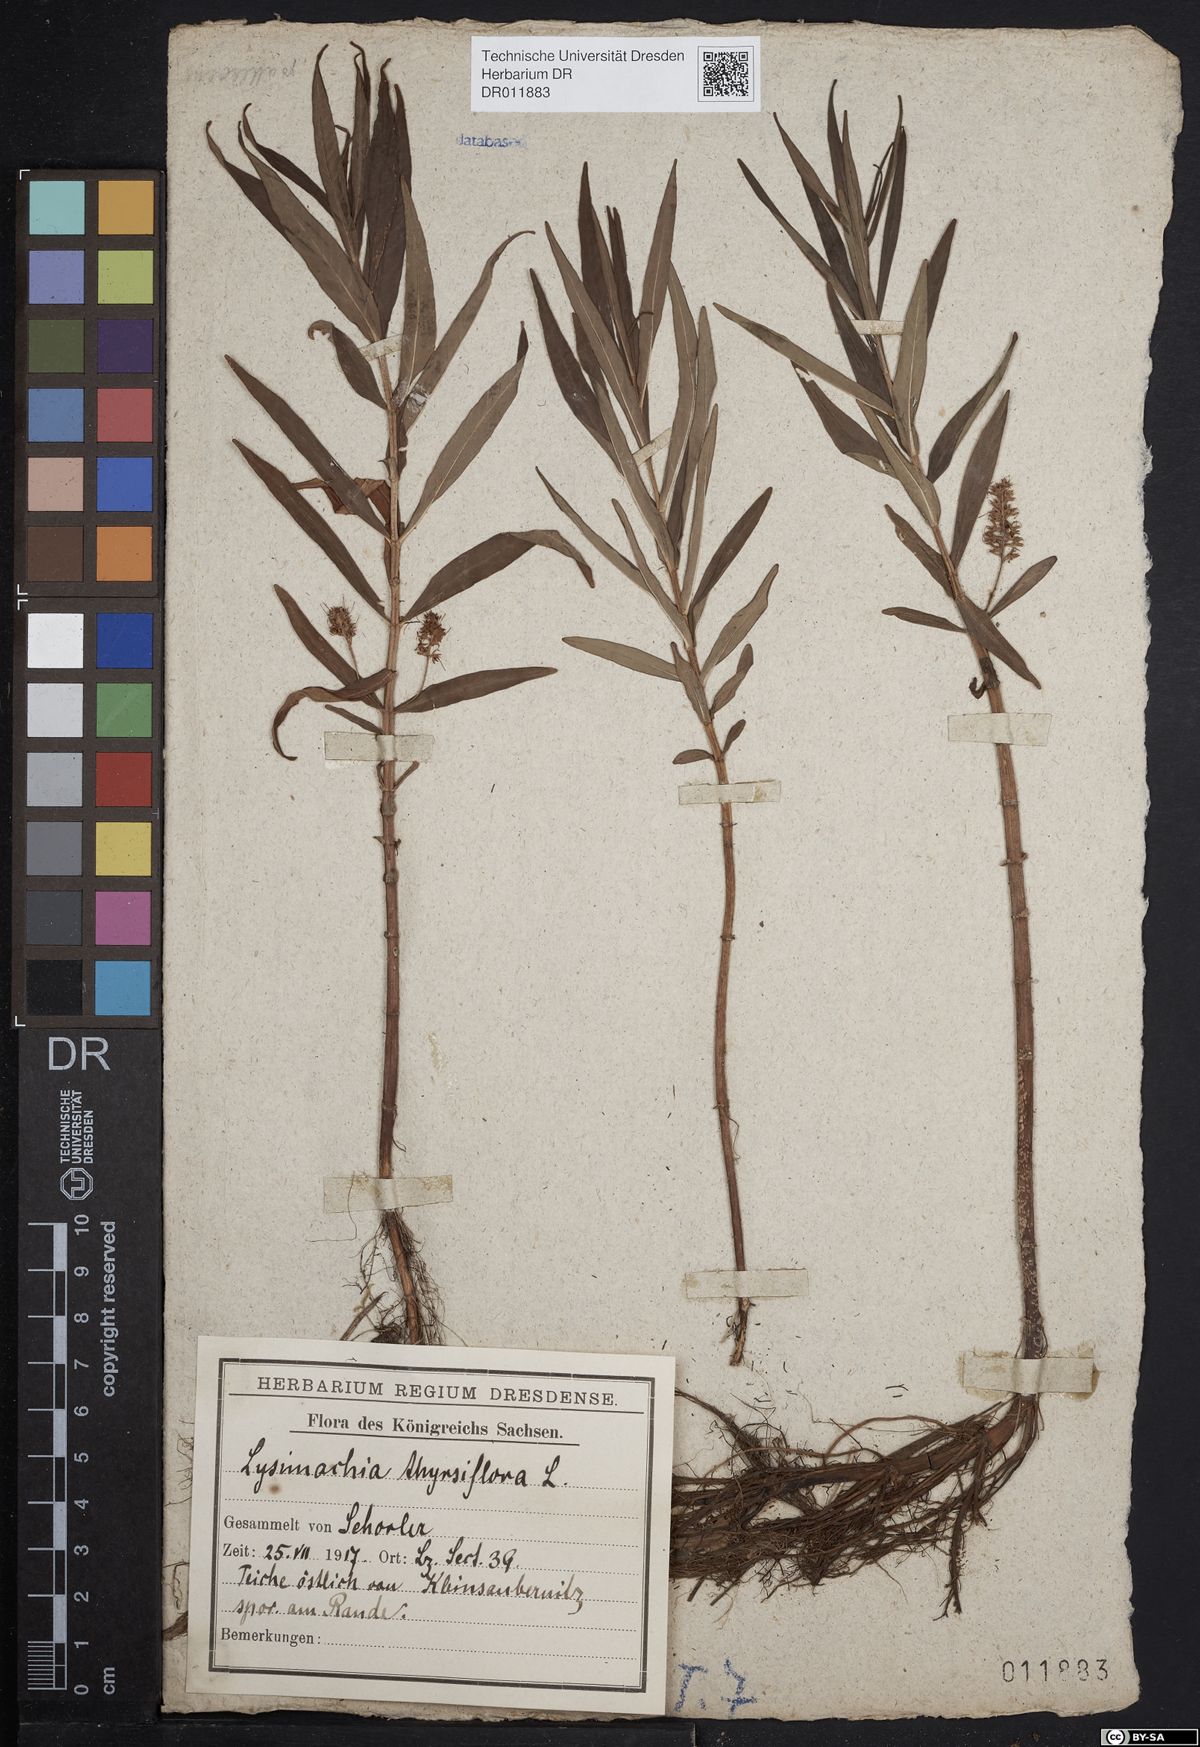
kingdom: Plantae
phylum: Tracheophyta
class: Magnoliopsida
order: Ericales
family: Primulaceae
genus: Lysimachia
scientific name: Lysimachia thyrsiflora
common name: Tufted loosestrife
